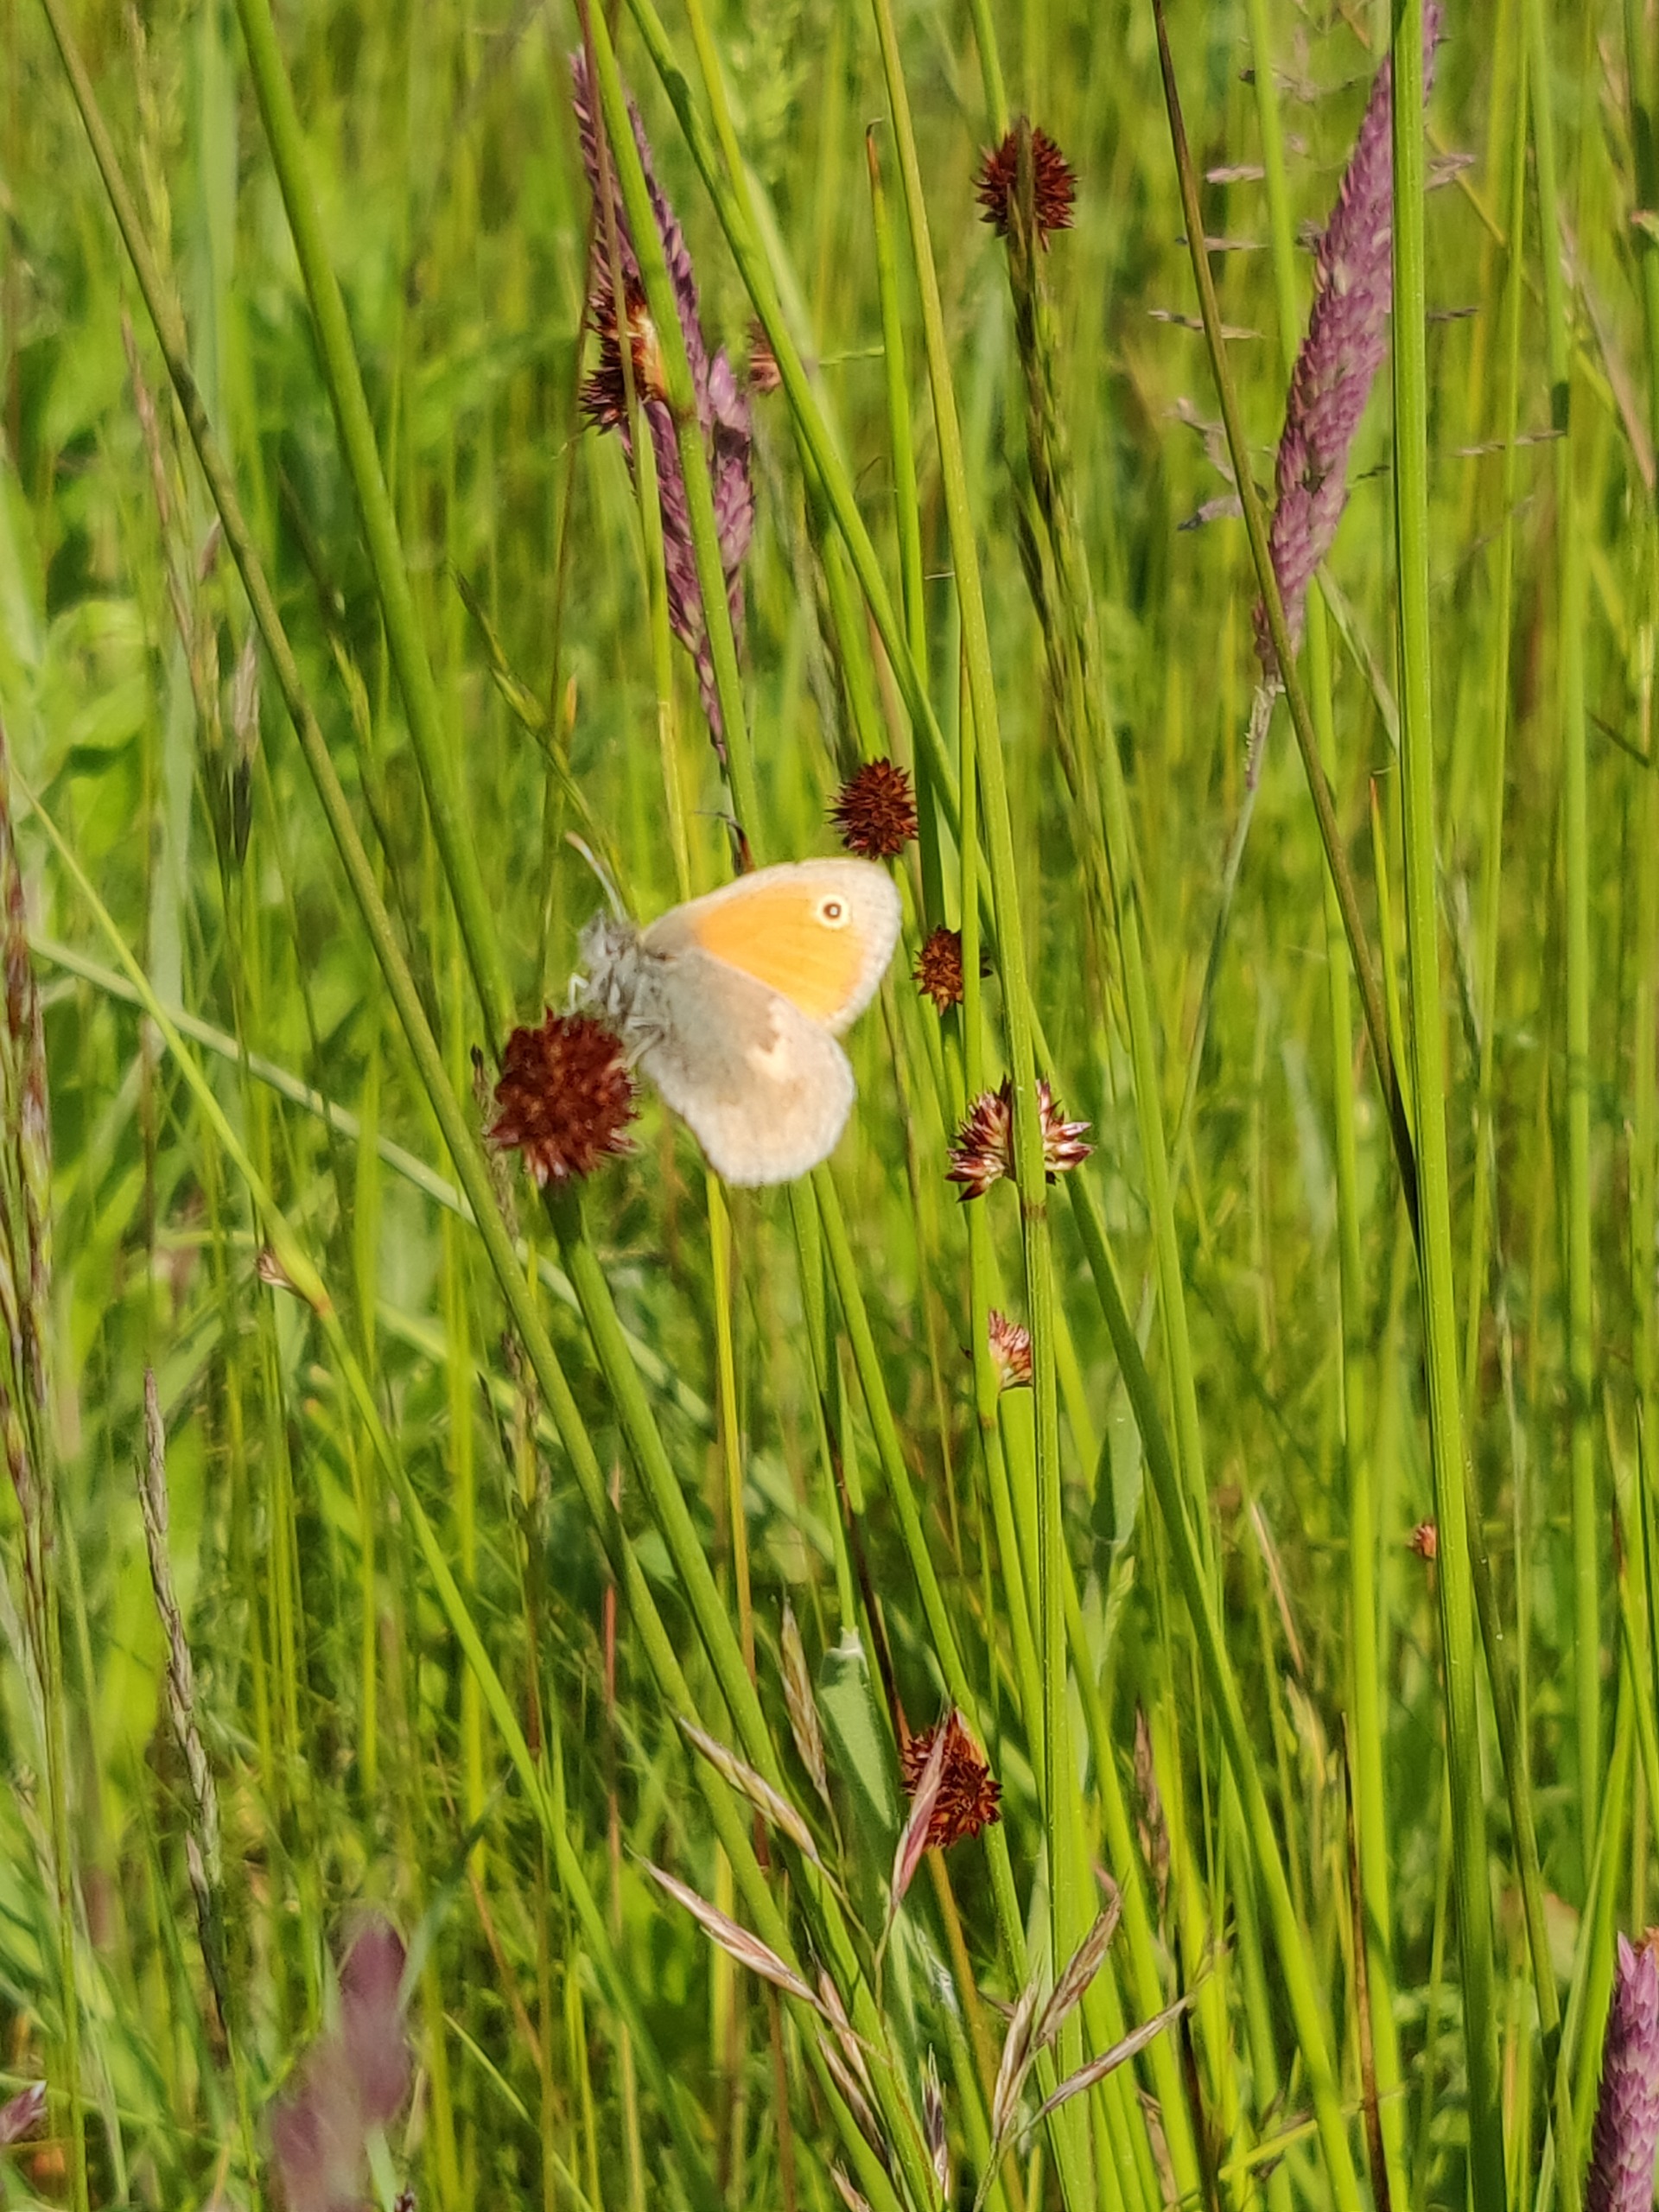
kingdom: Animalia
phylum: Arthropoda
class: Insecta
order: Lepidoptera
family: Nymphalidae
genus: Coenonympha
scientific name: Coenonympha pamphilus
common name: Okkergul randøje
